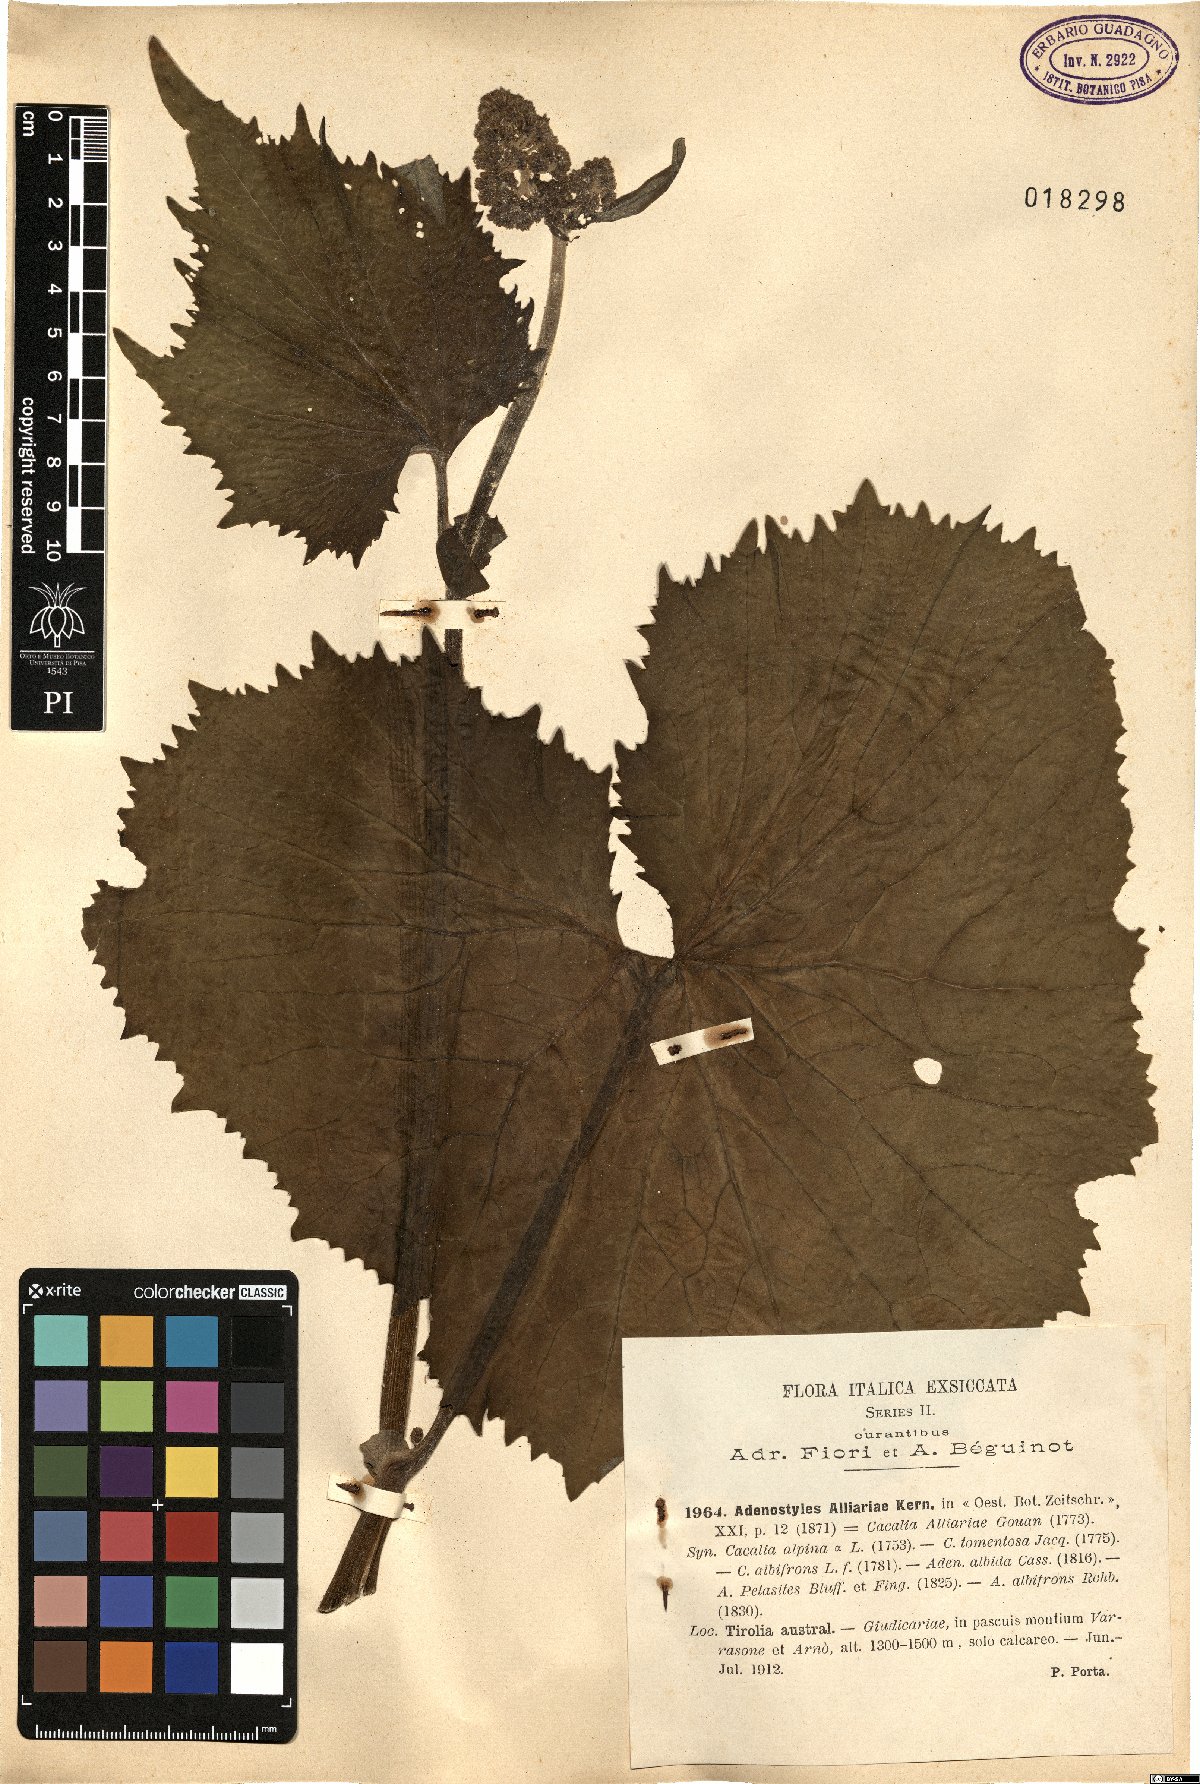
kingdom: Plantae
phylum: Tracheophyta
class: Magnoliopsida
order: Asterales
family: Asteraceae
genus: Adenostyles
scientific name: Adenostyles alliariae
